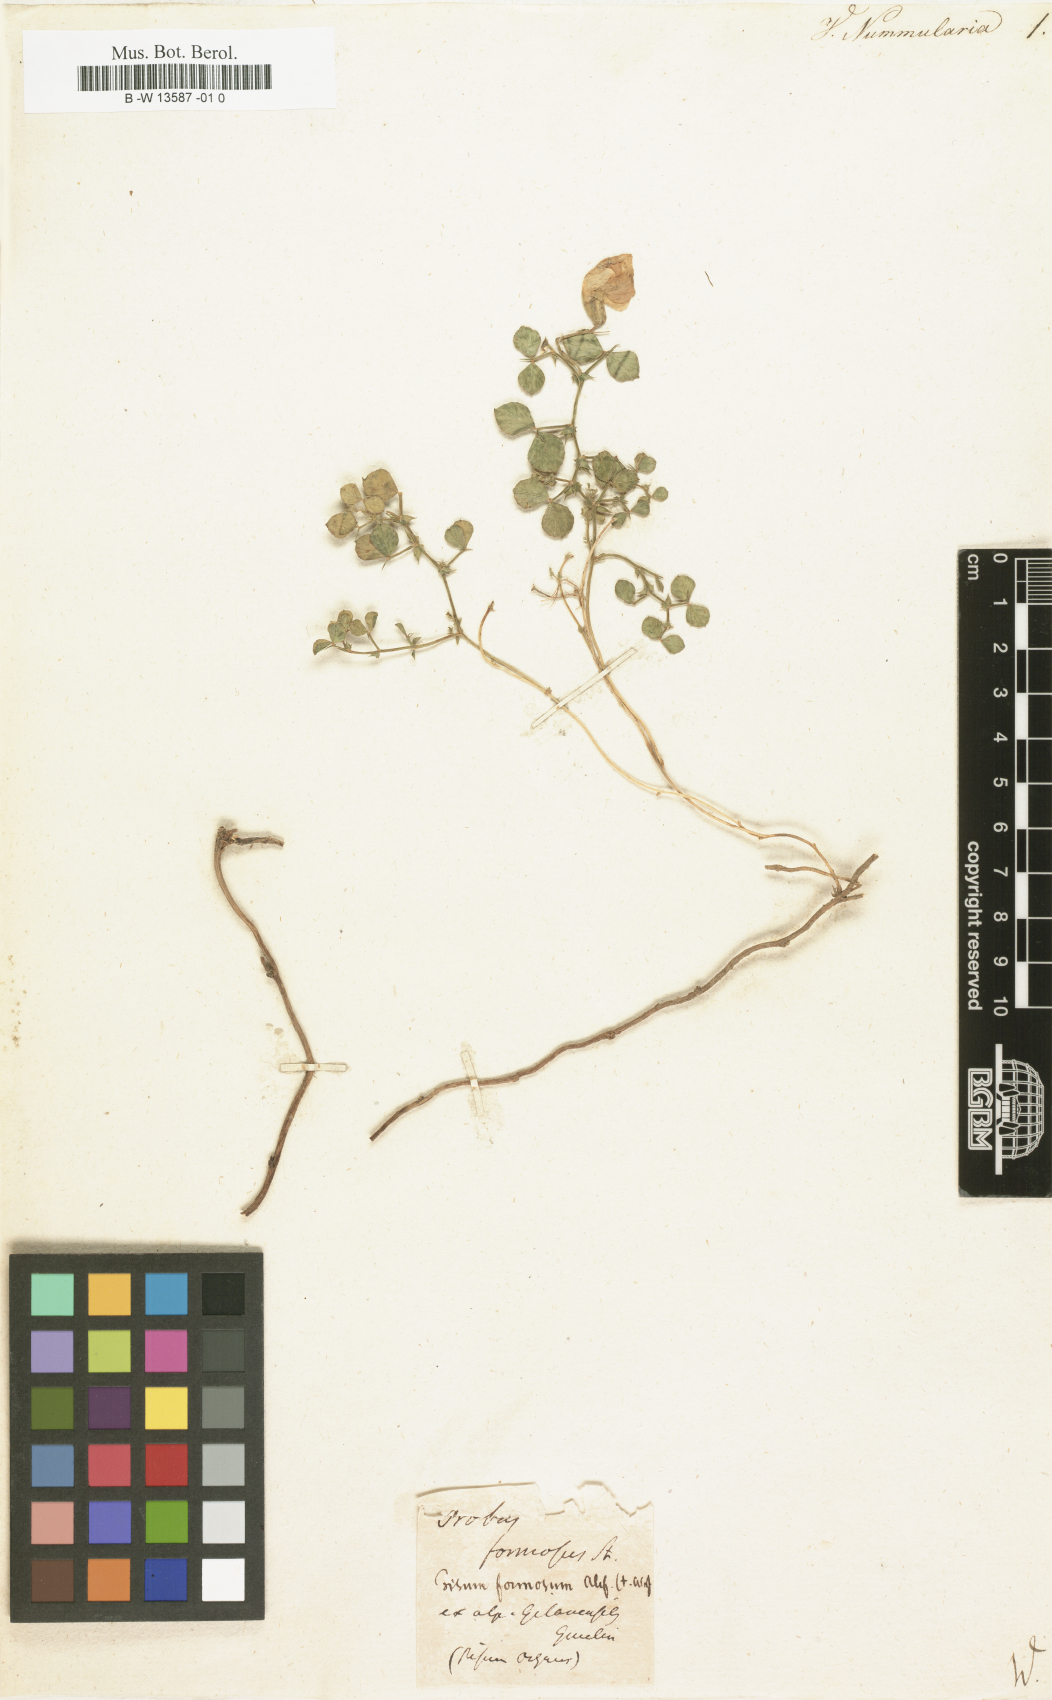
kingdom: Plantae
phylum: Tracheophyta
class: Magnoliopsida
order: Fabales
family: Fabaceae
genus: Vicia
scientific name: Vicia nummularia
